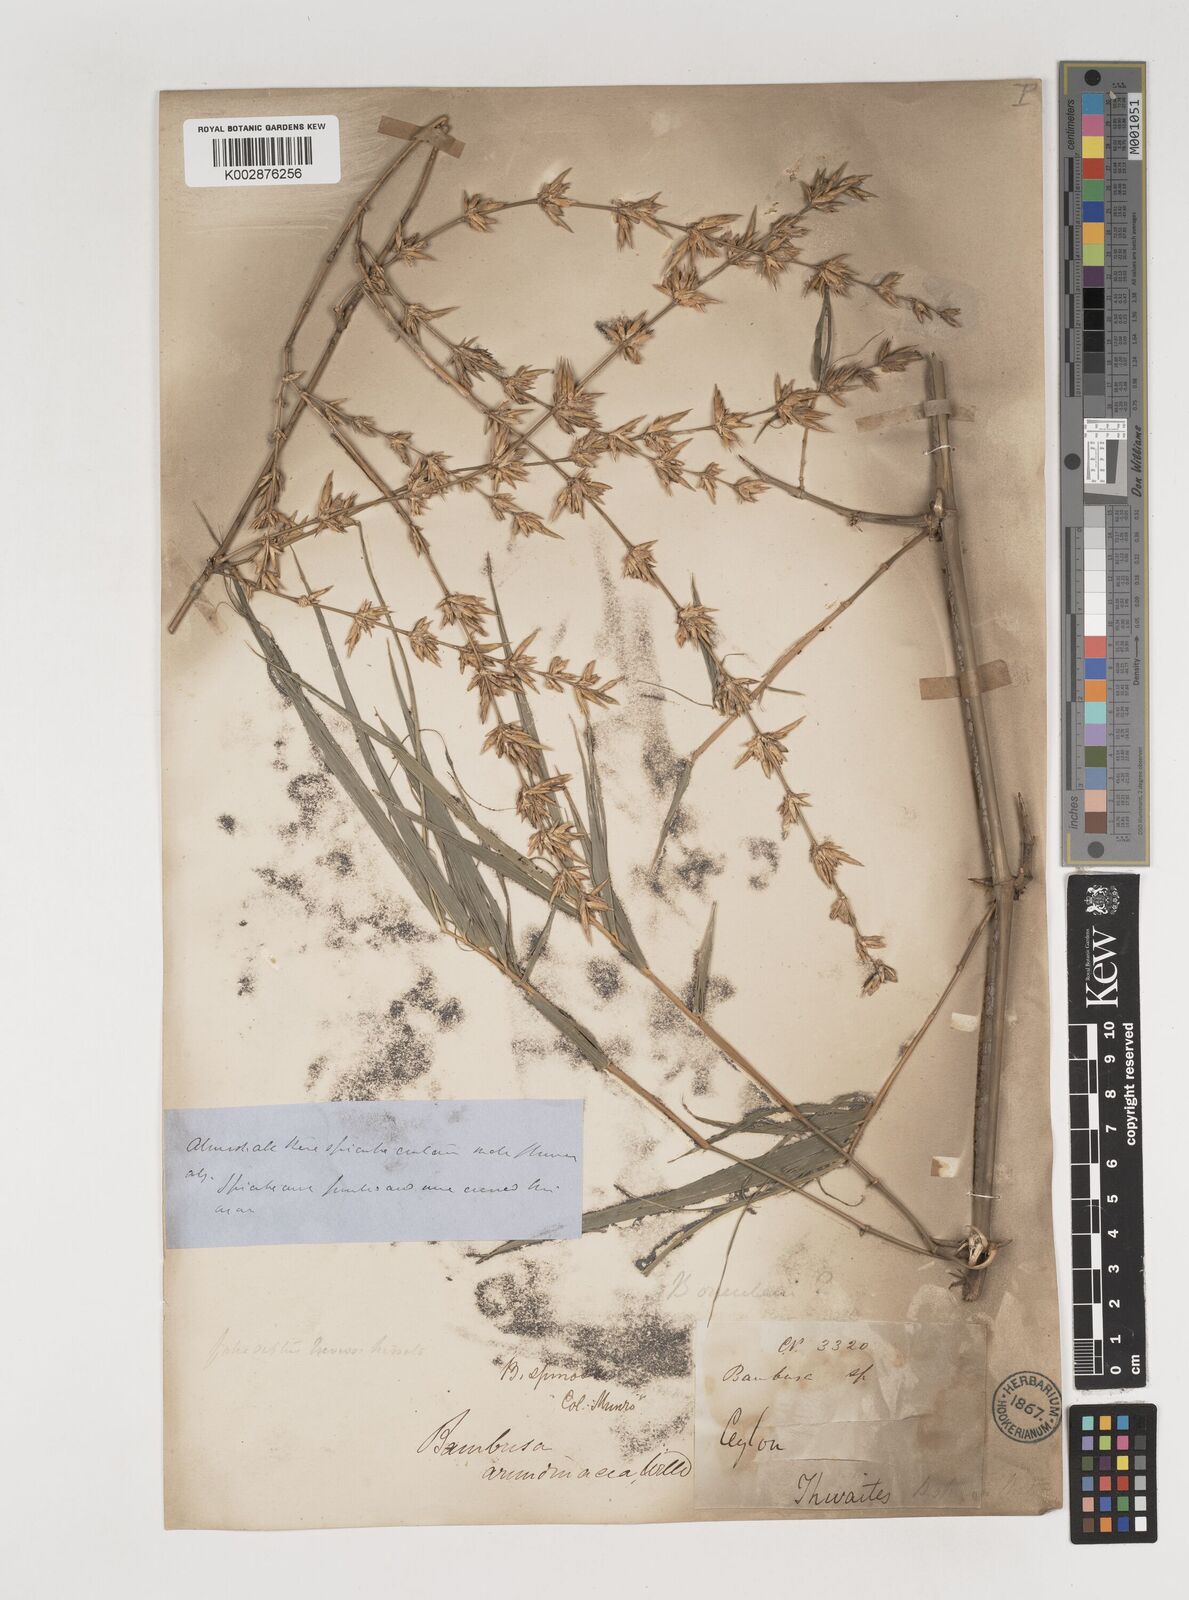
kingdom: Plantae
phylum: Tracheophyta
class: Liliopsida
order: Poales
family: Poaceae
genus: Bambusa
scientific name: Bambusa bambos
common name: Indian thorny bamboo
